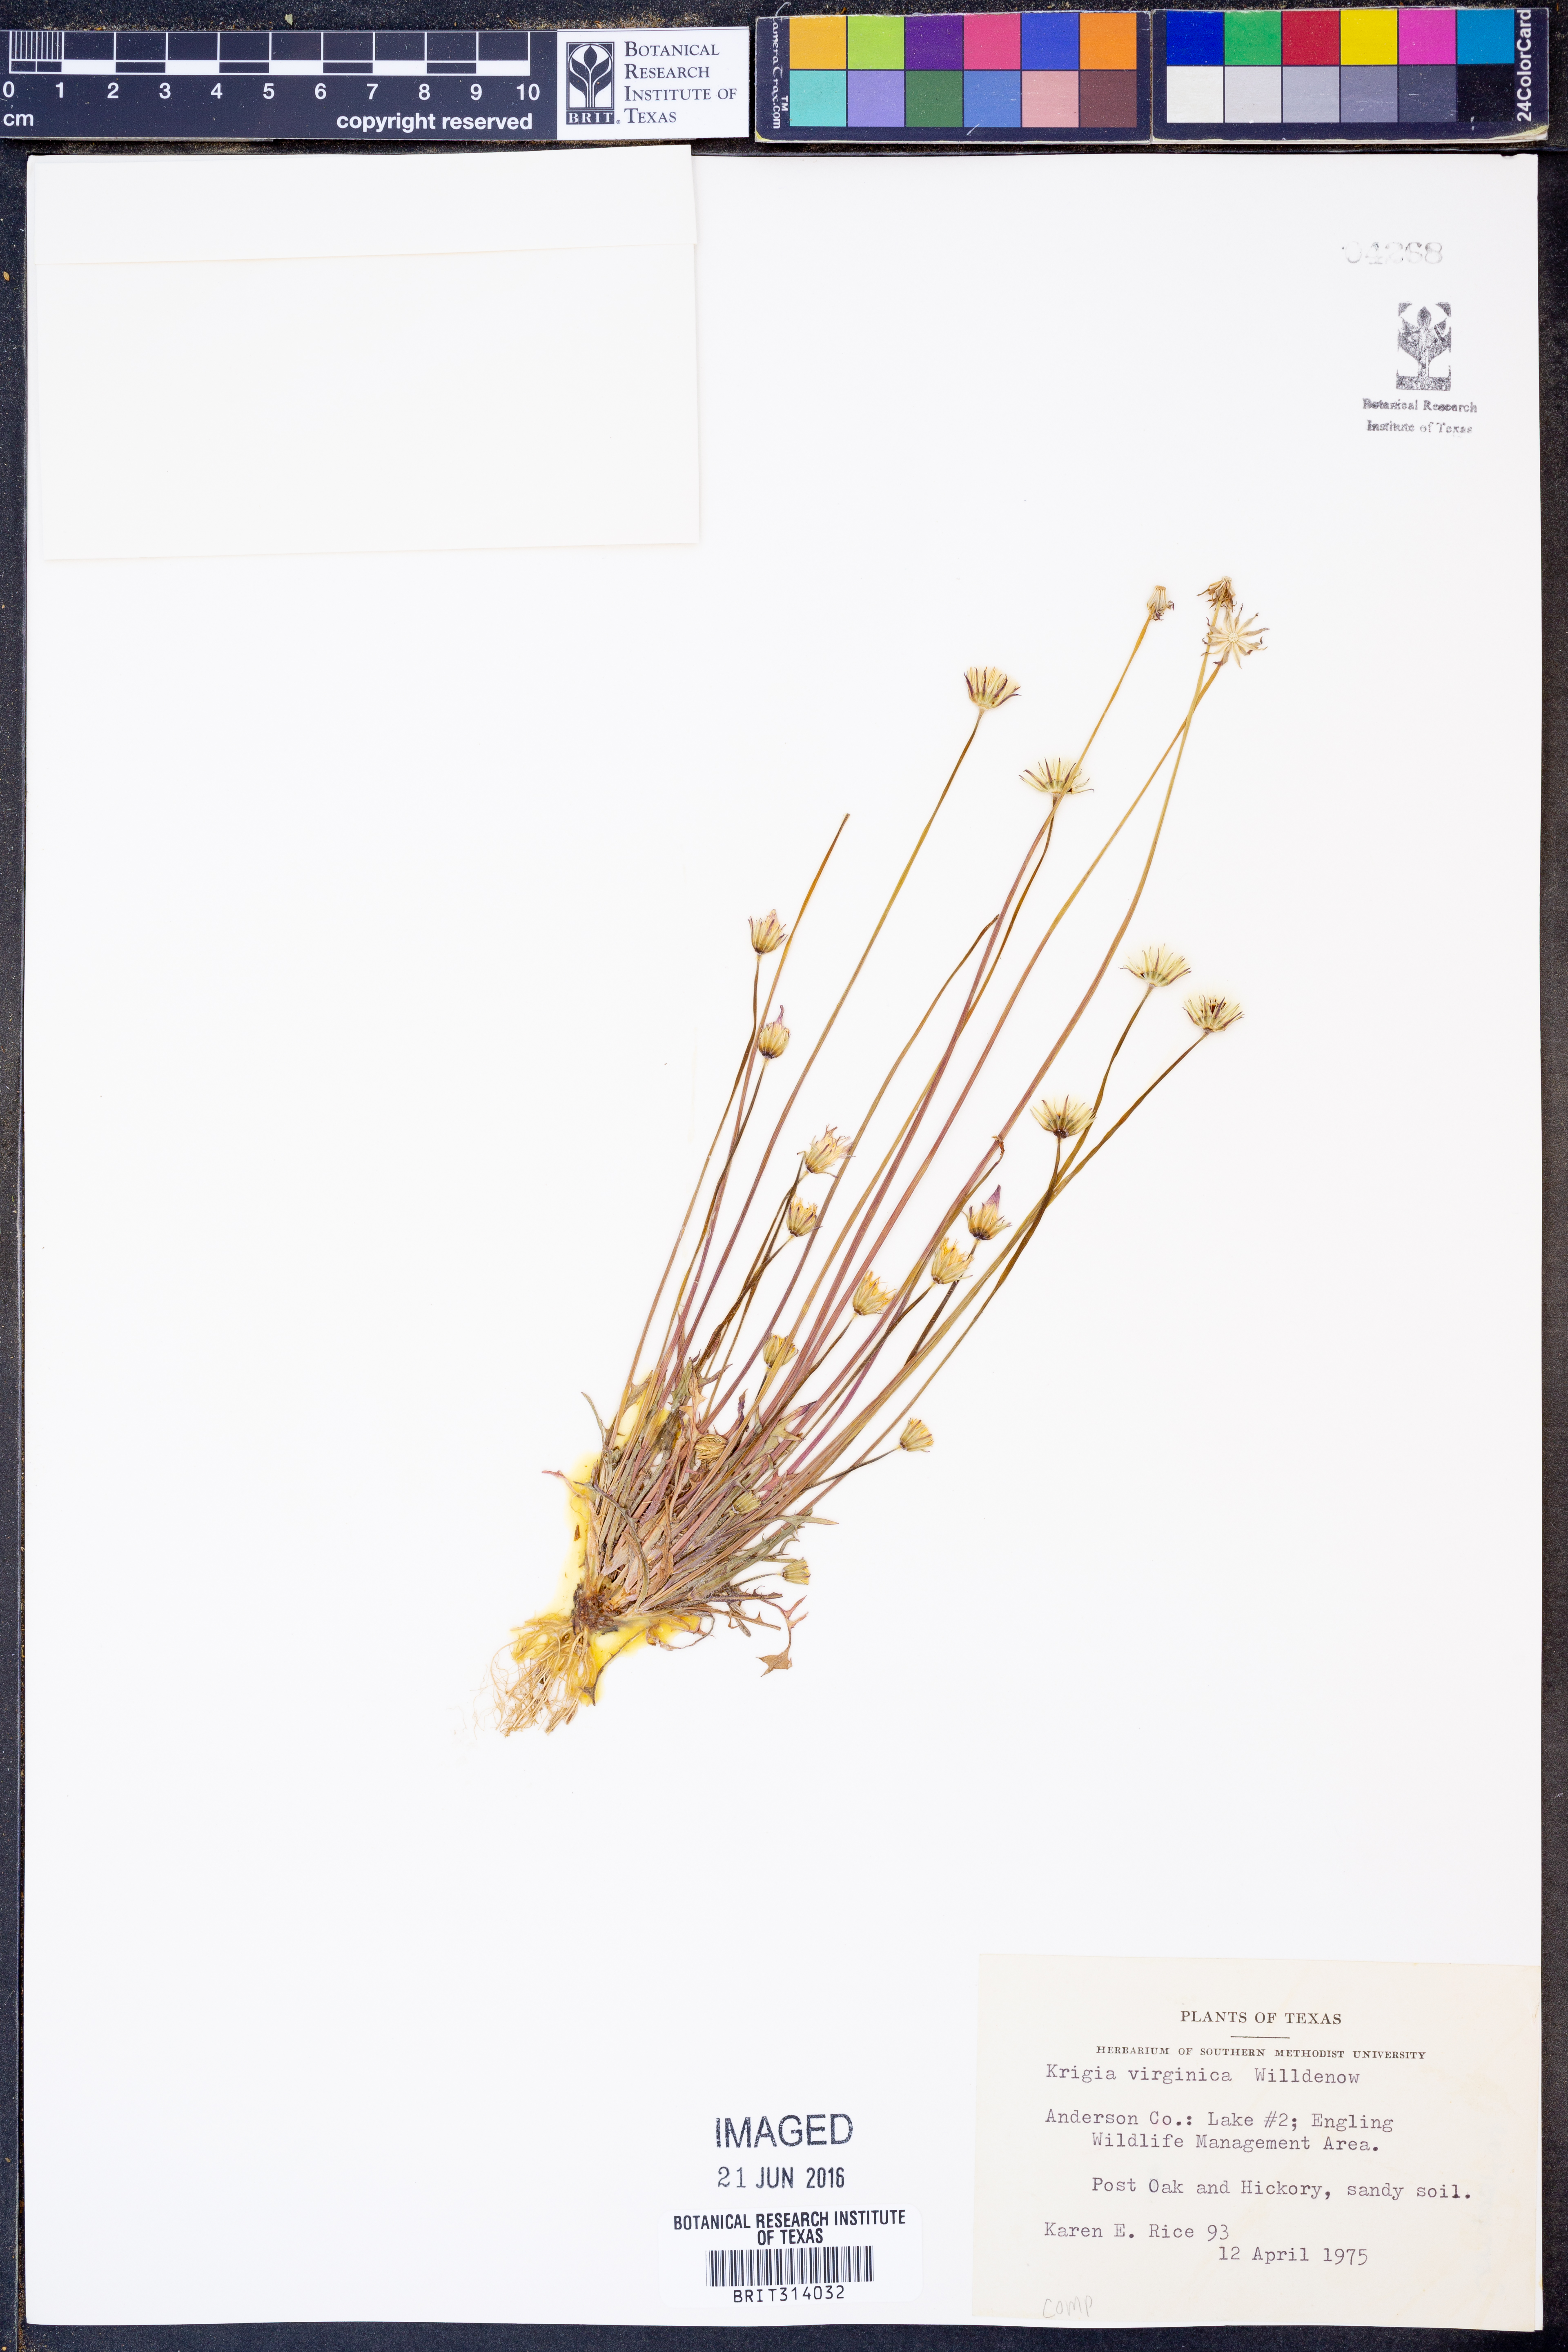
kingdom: Plantae
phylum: Tracheophyta
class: Magnoliopsida
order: Asterales
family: Asteraceae
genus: Krigia
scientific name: Krigia virginica
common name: Virginia dwarf-dandelion
